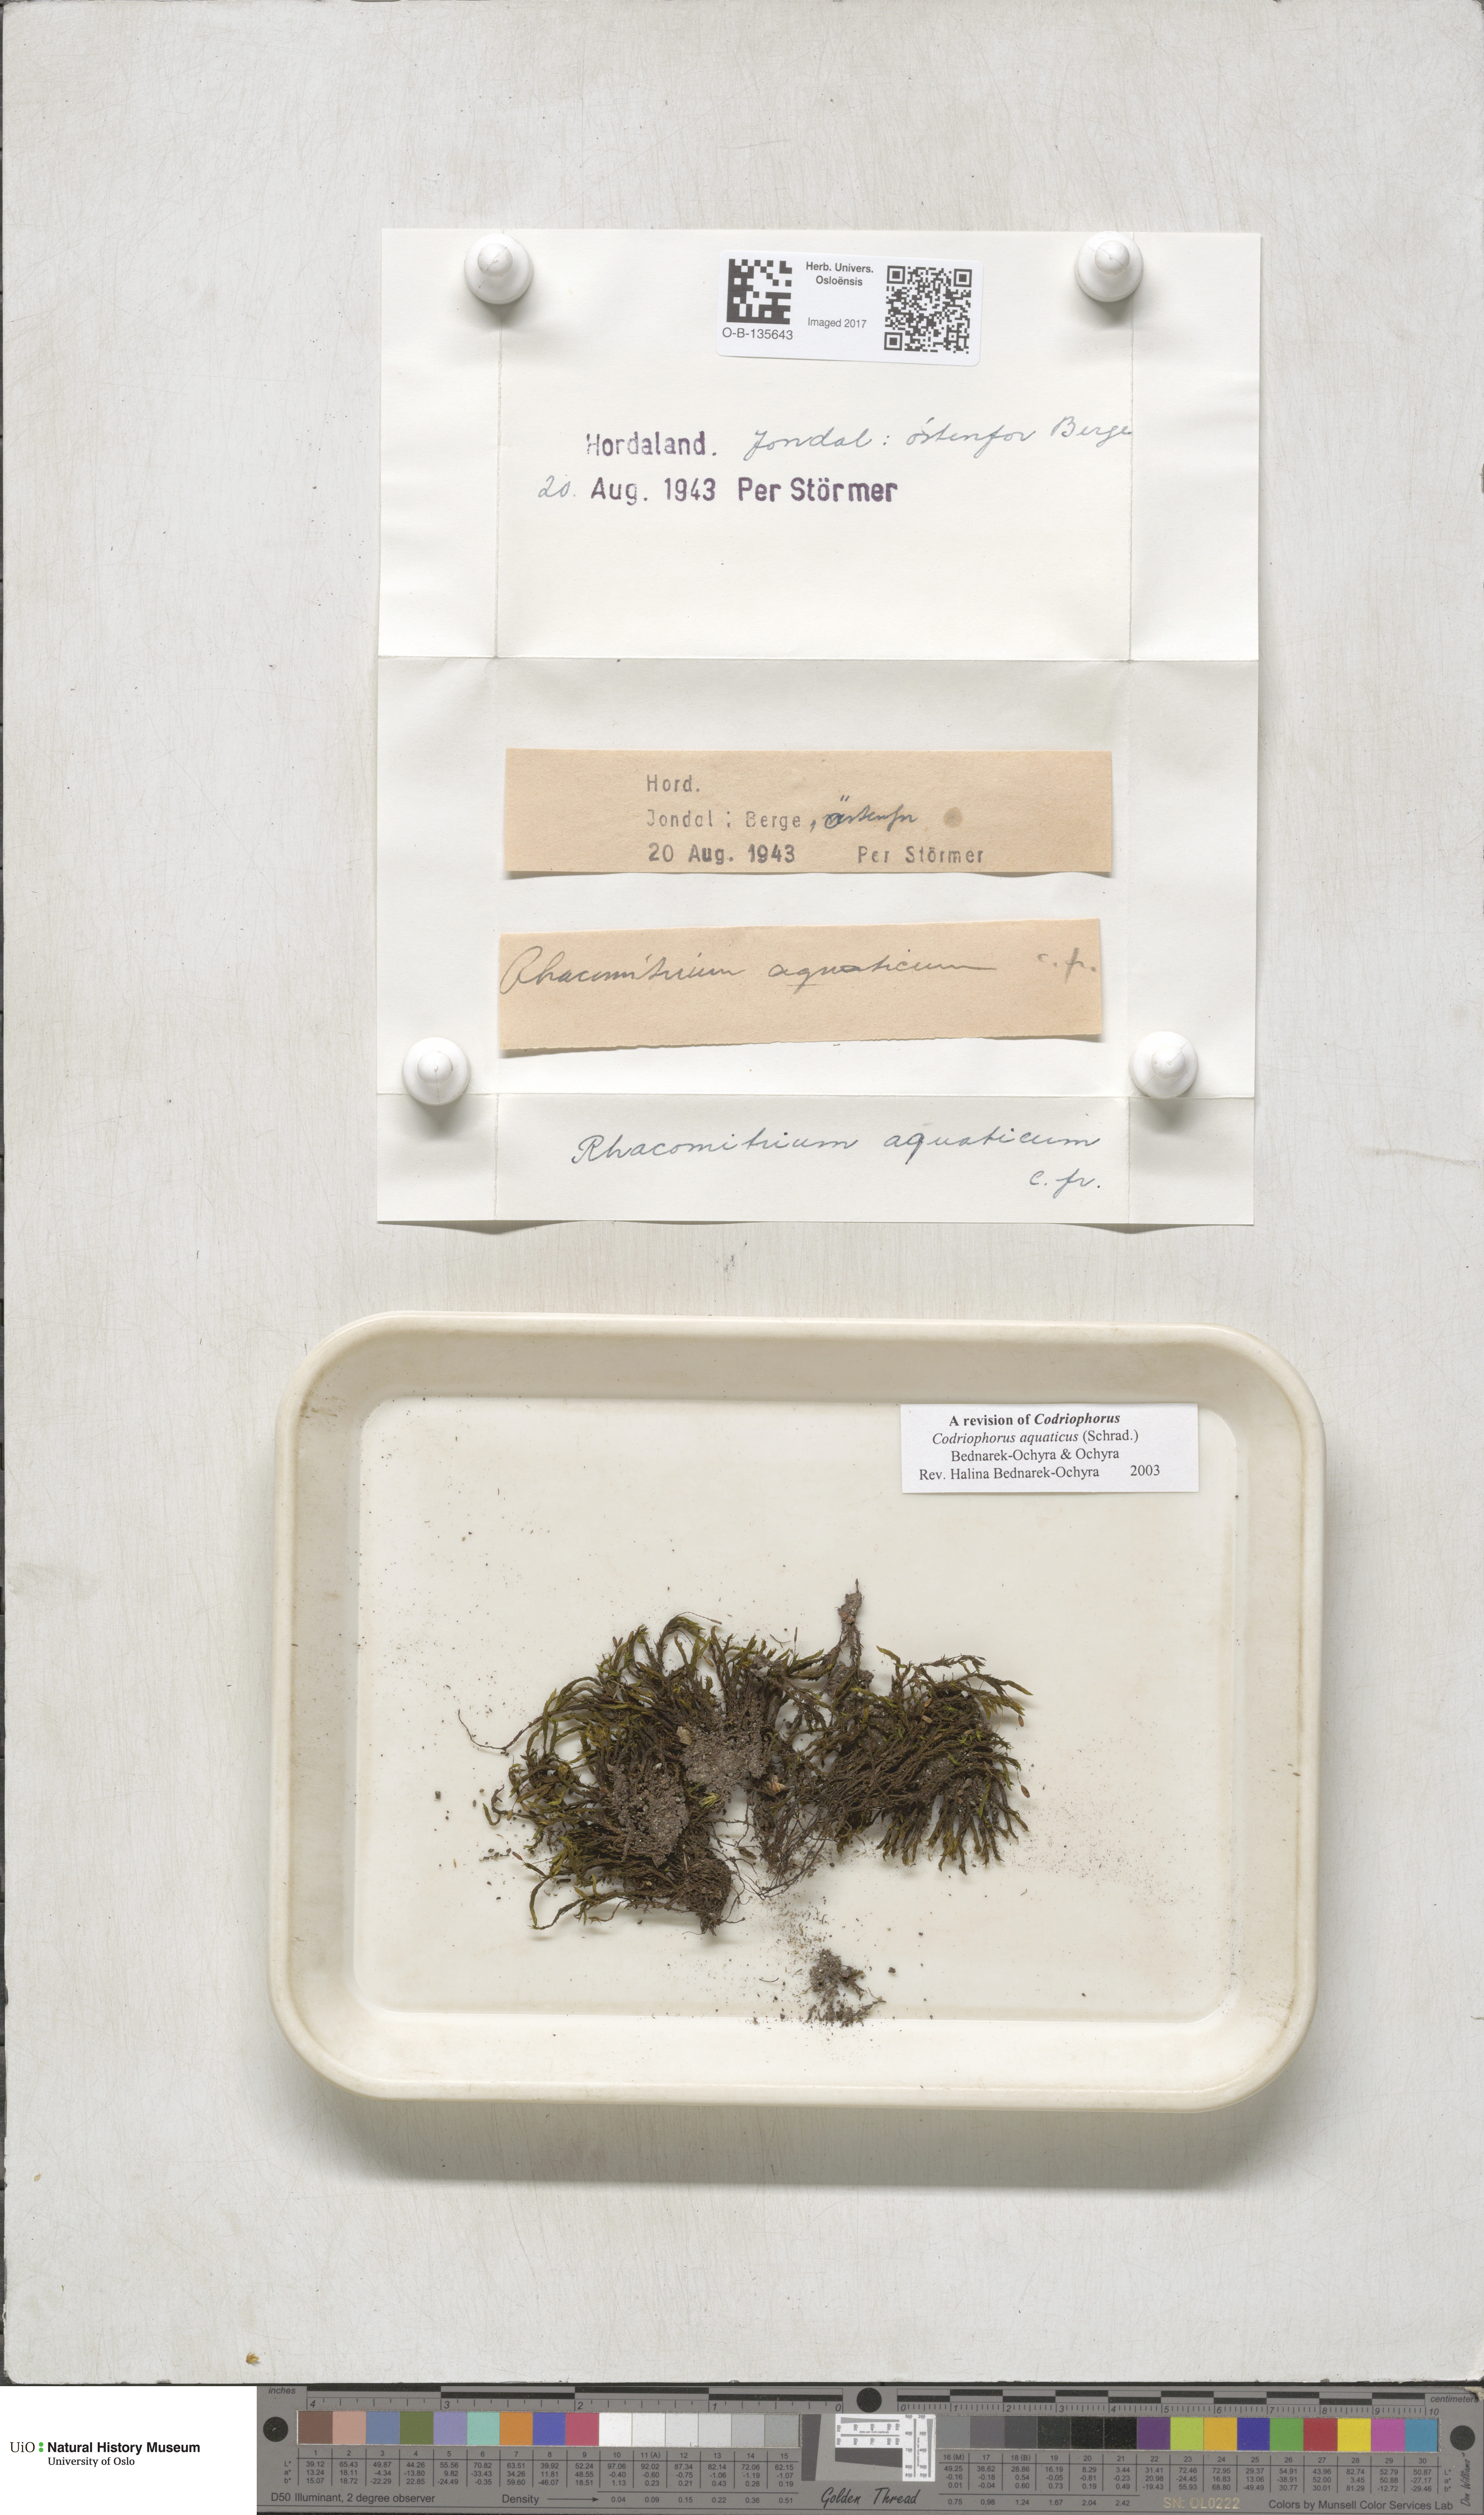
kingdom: Plantae
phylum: Bryophyta
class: Bryopsida
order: Grimmiales
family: Grimmiaceae
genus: Codriophorus
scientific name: Codriophorus aquaticus
